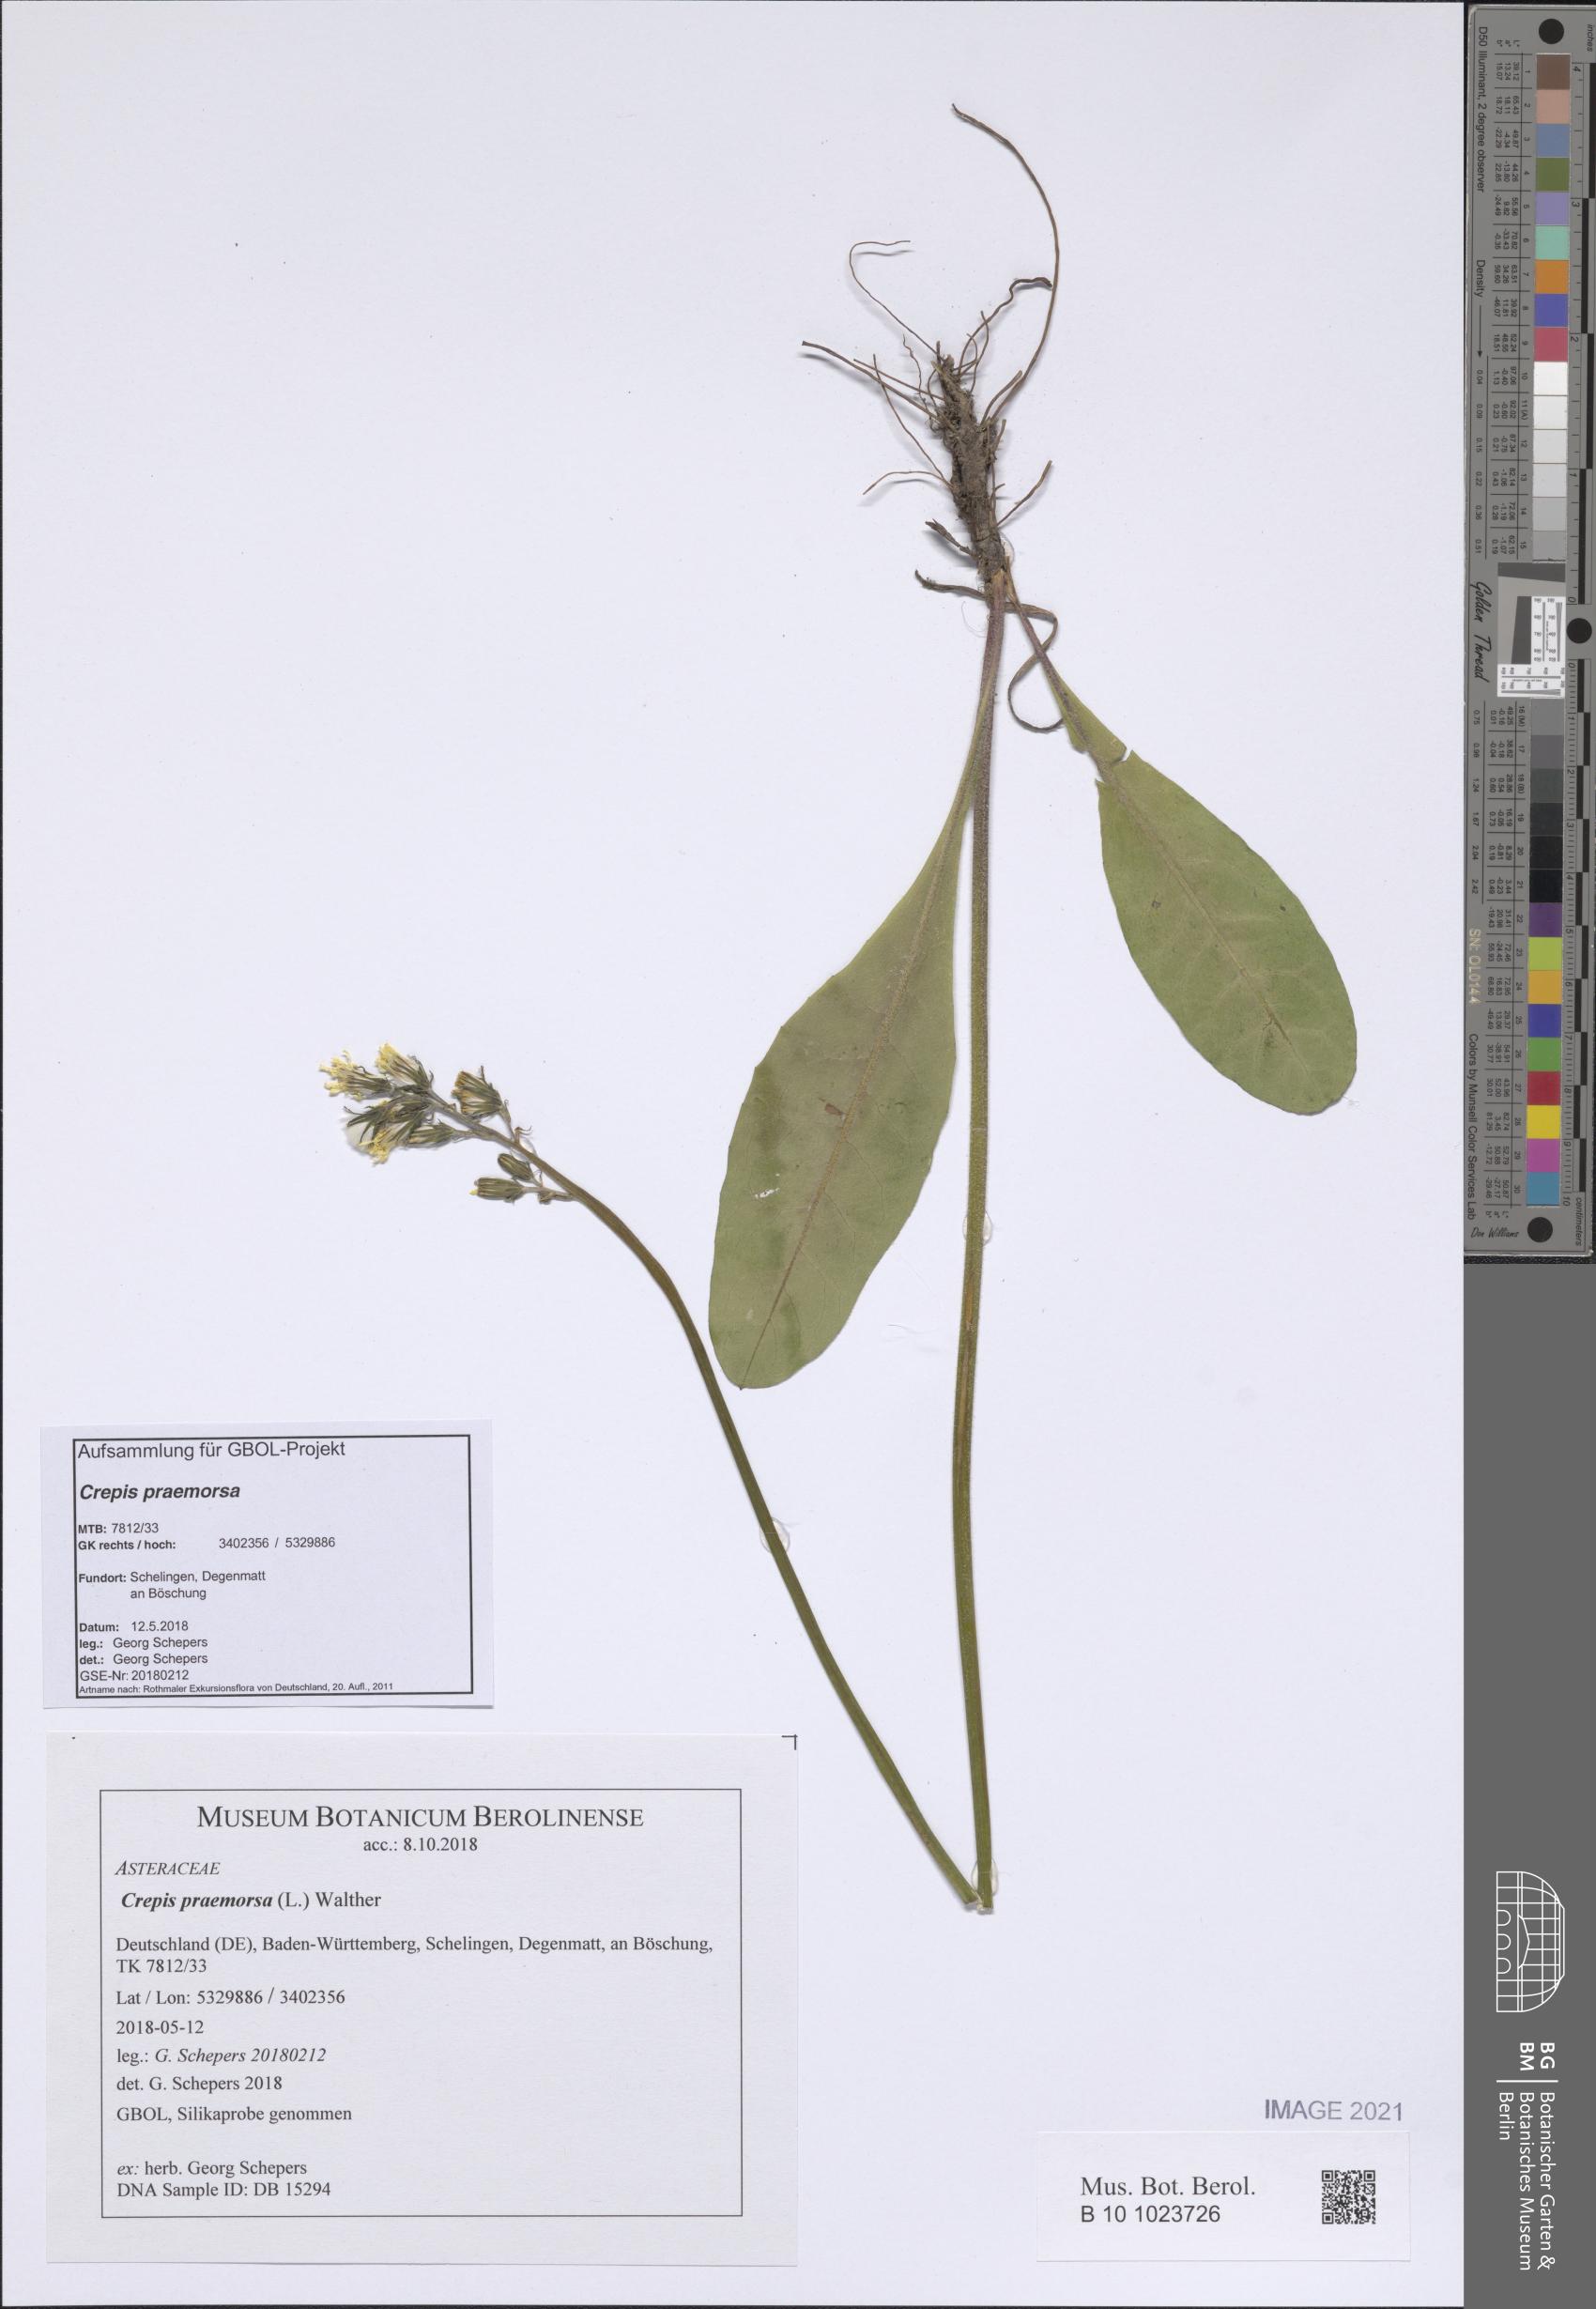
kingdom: Plantae
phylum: Tracheophyta
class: Magnoliopsida
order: Asterales
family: Asteraceae
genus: Crepis
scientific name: Crepis praemorsa
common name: Leafless hawk's-beard
